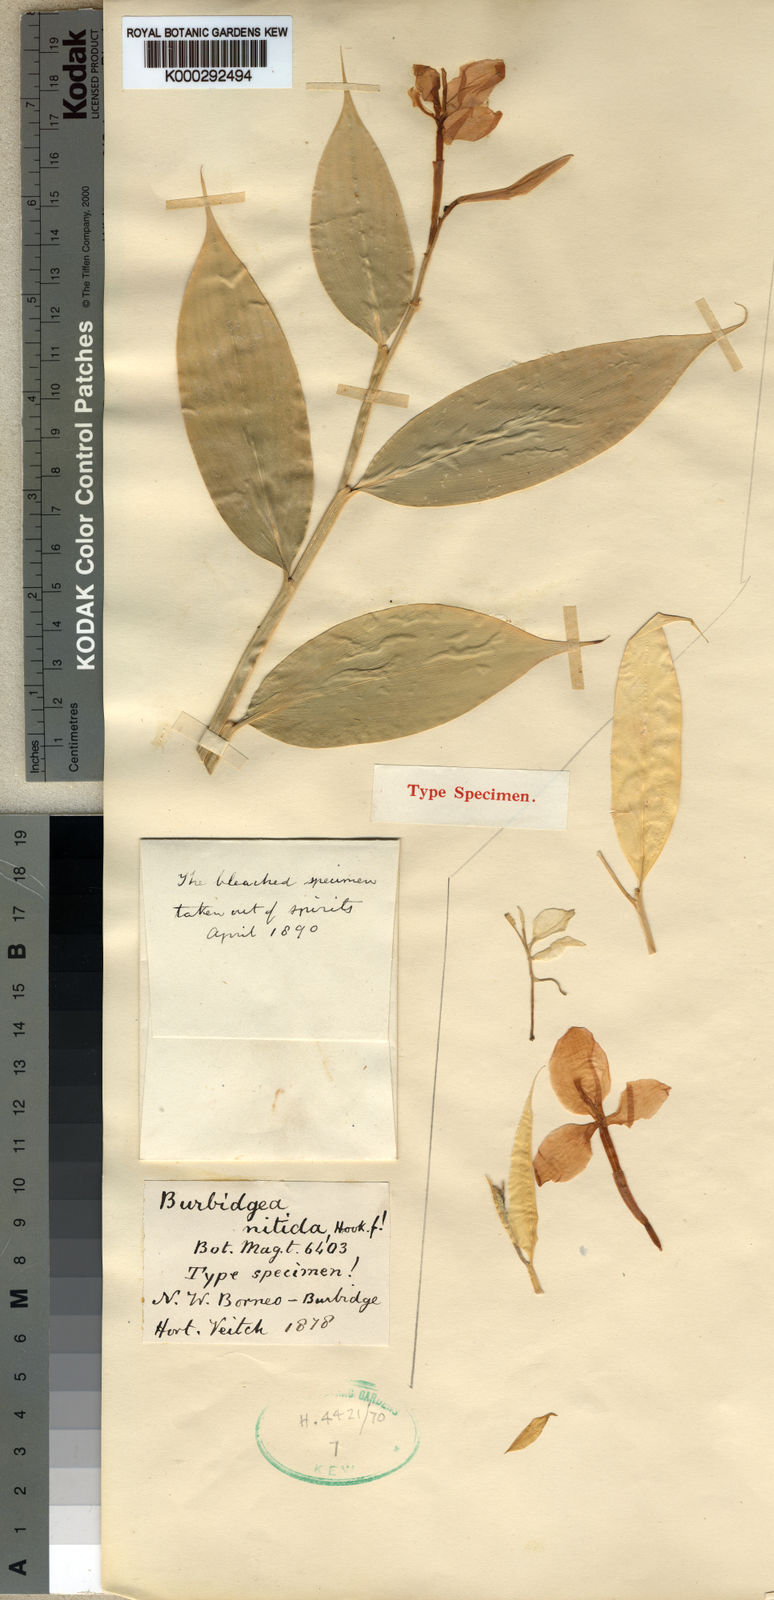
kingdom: Plantae
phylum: Tracheophyta
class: Liliopsida
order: Zingiberales
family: Zingiberaceae
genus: Burbidgea
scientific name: Burbidgea nitida
